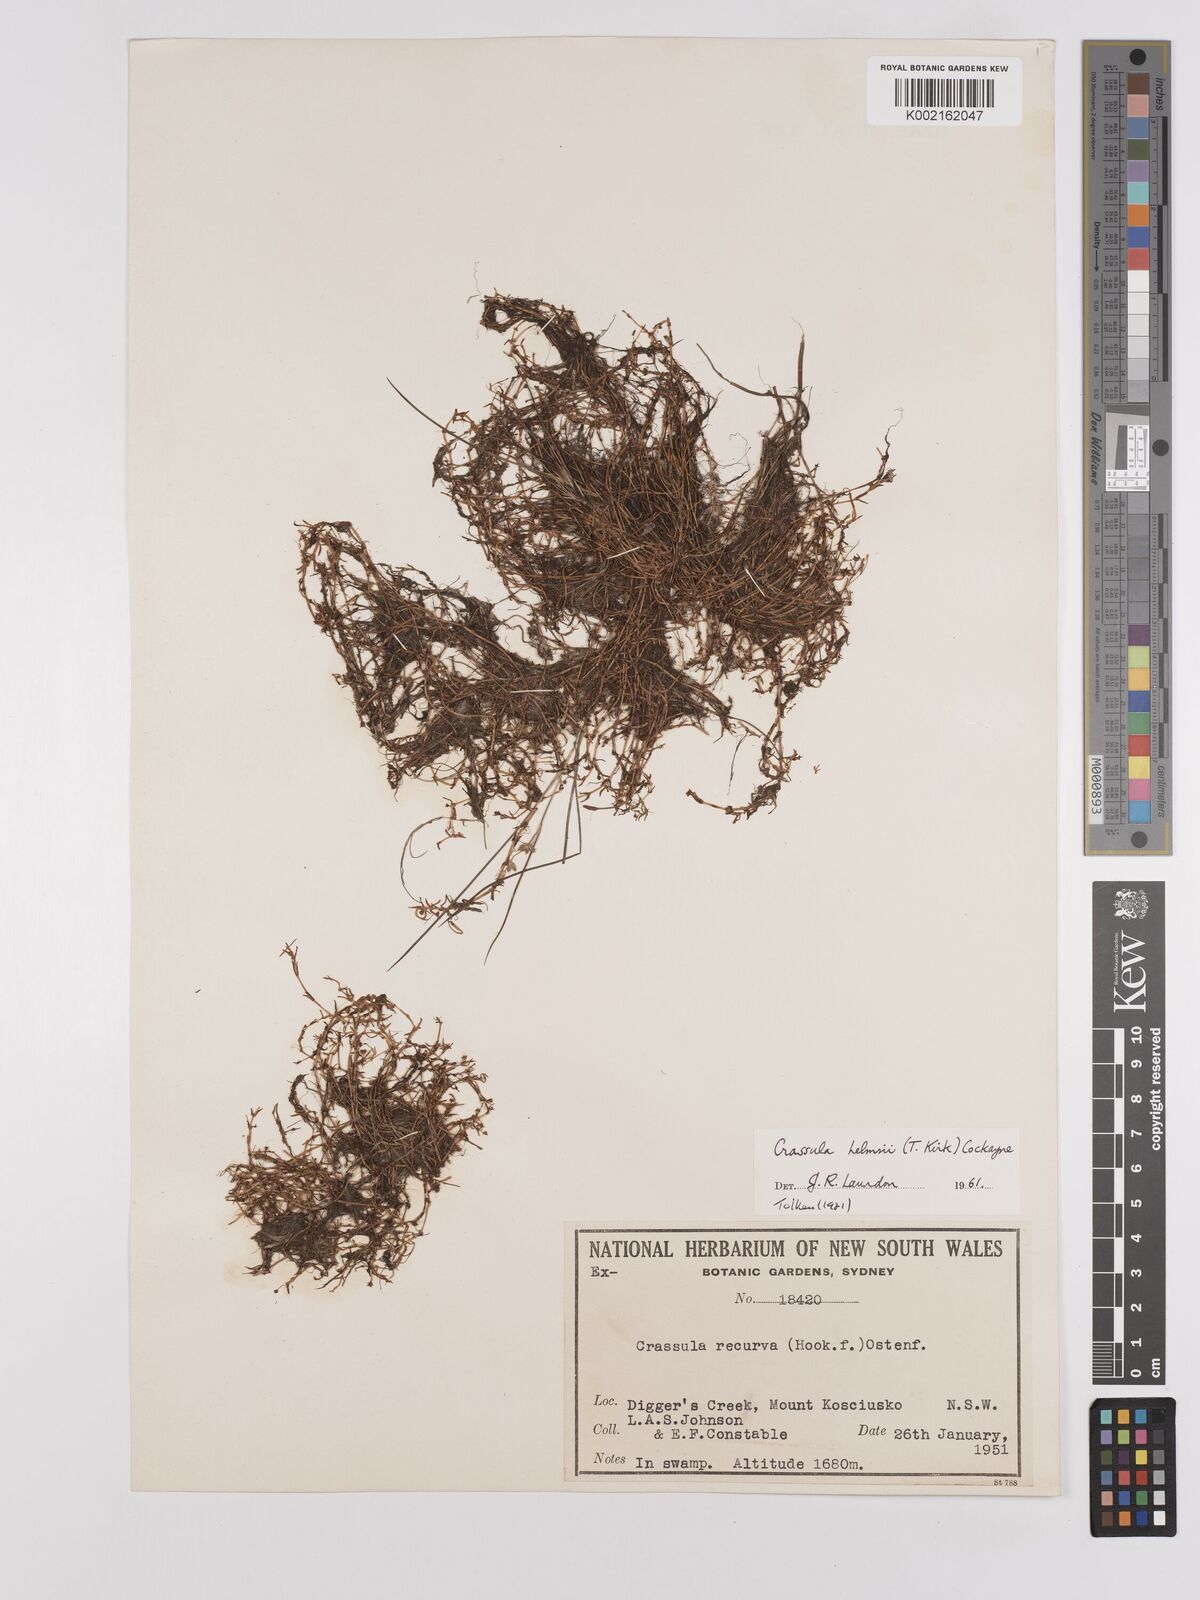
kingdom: Plantae
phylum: Tracheophyta
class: Magnoliopsida
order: Saxifragales
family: Crassulaceae
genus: Crassula
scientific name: Crassula helmsii
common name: New zealand pigmyweed
